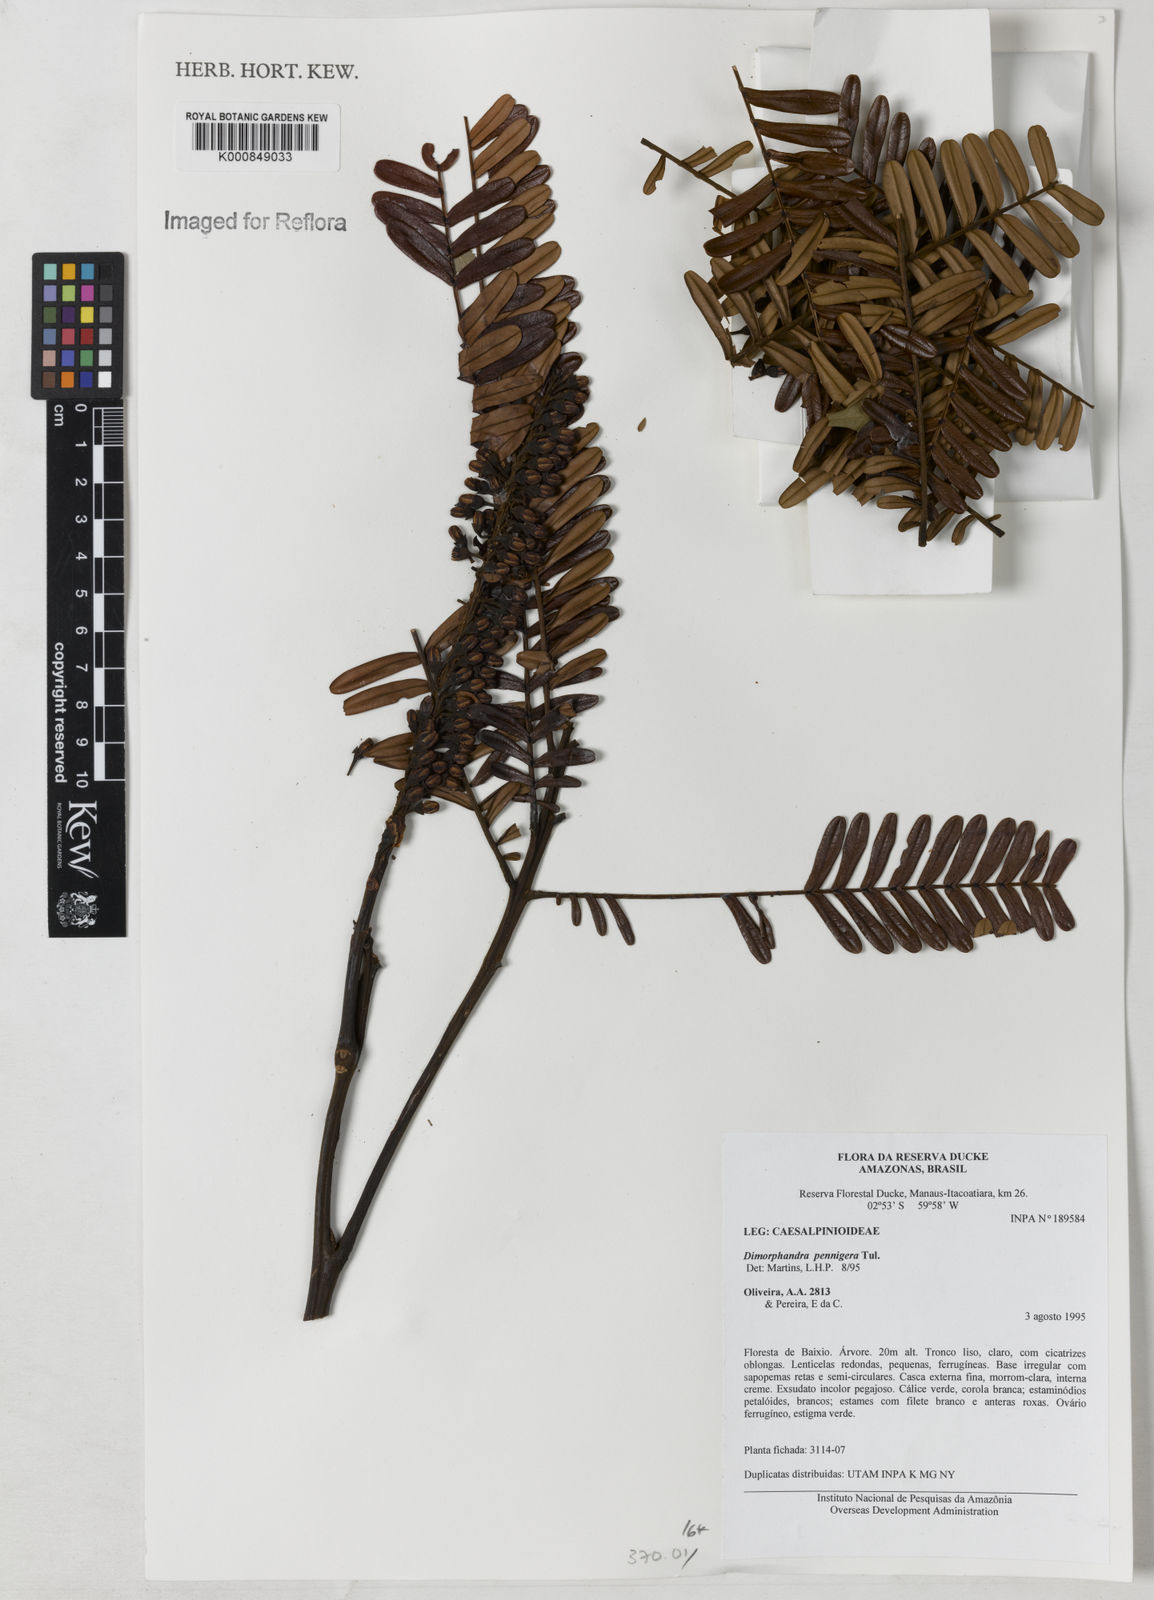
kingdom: Plantae
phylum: Tracheophyta
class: Magnoliopsida
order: Fabales
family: Fabaceae
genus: Dimorphandra
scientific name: Dimorphandra pennigera
